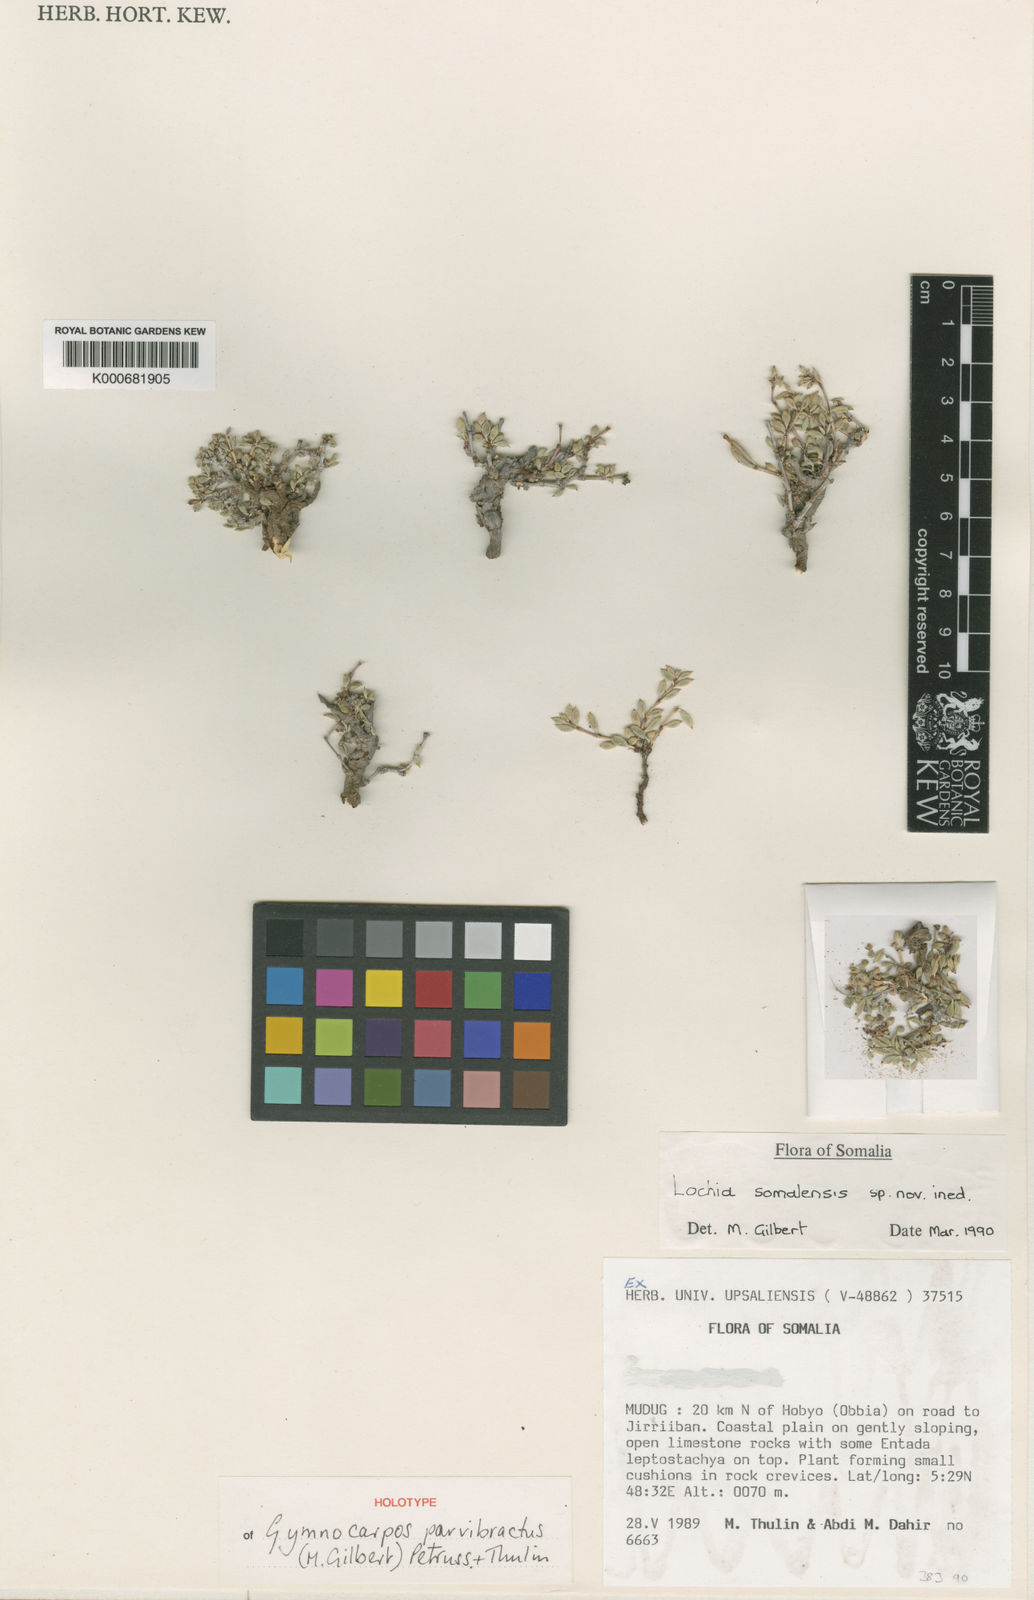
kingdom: Plantae
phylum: Tracheophyta
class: Magnoliopsida
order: Caryophyllales
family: Caryophyllaceae
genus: Gymnocarpos
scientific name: Gymnocarpos parvibractus
